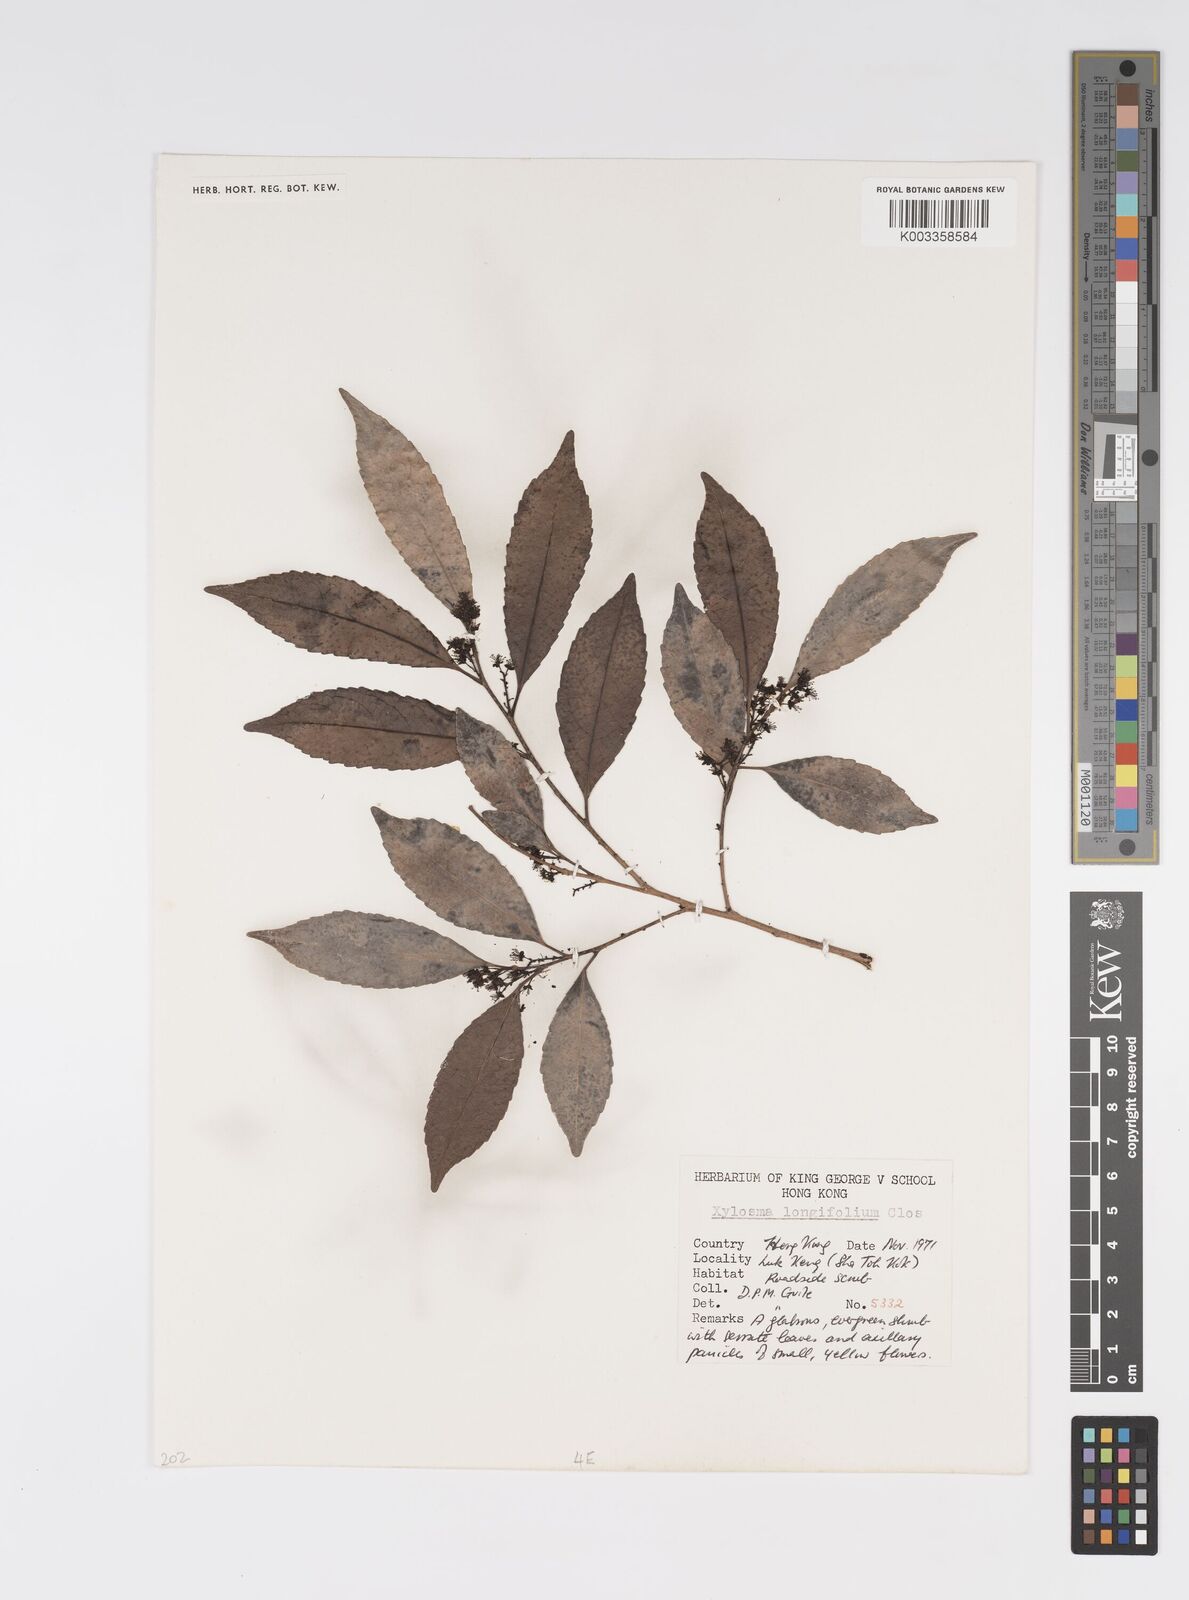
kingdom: Plantae
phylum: Tracheophyta
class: Magnoliopsida
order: Malpighiales
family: Salicaceae
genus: Xylosma
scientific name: Xylosma longifolia
